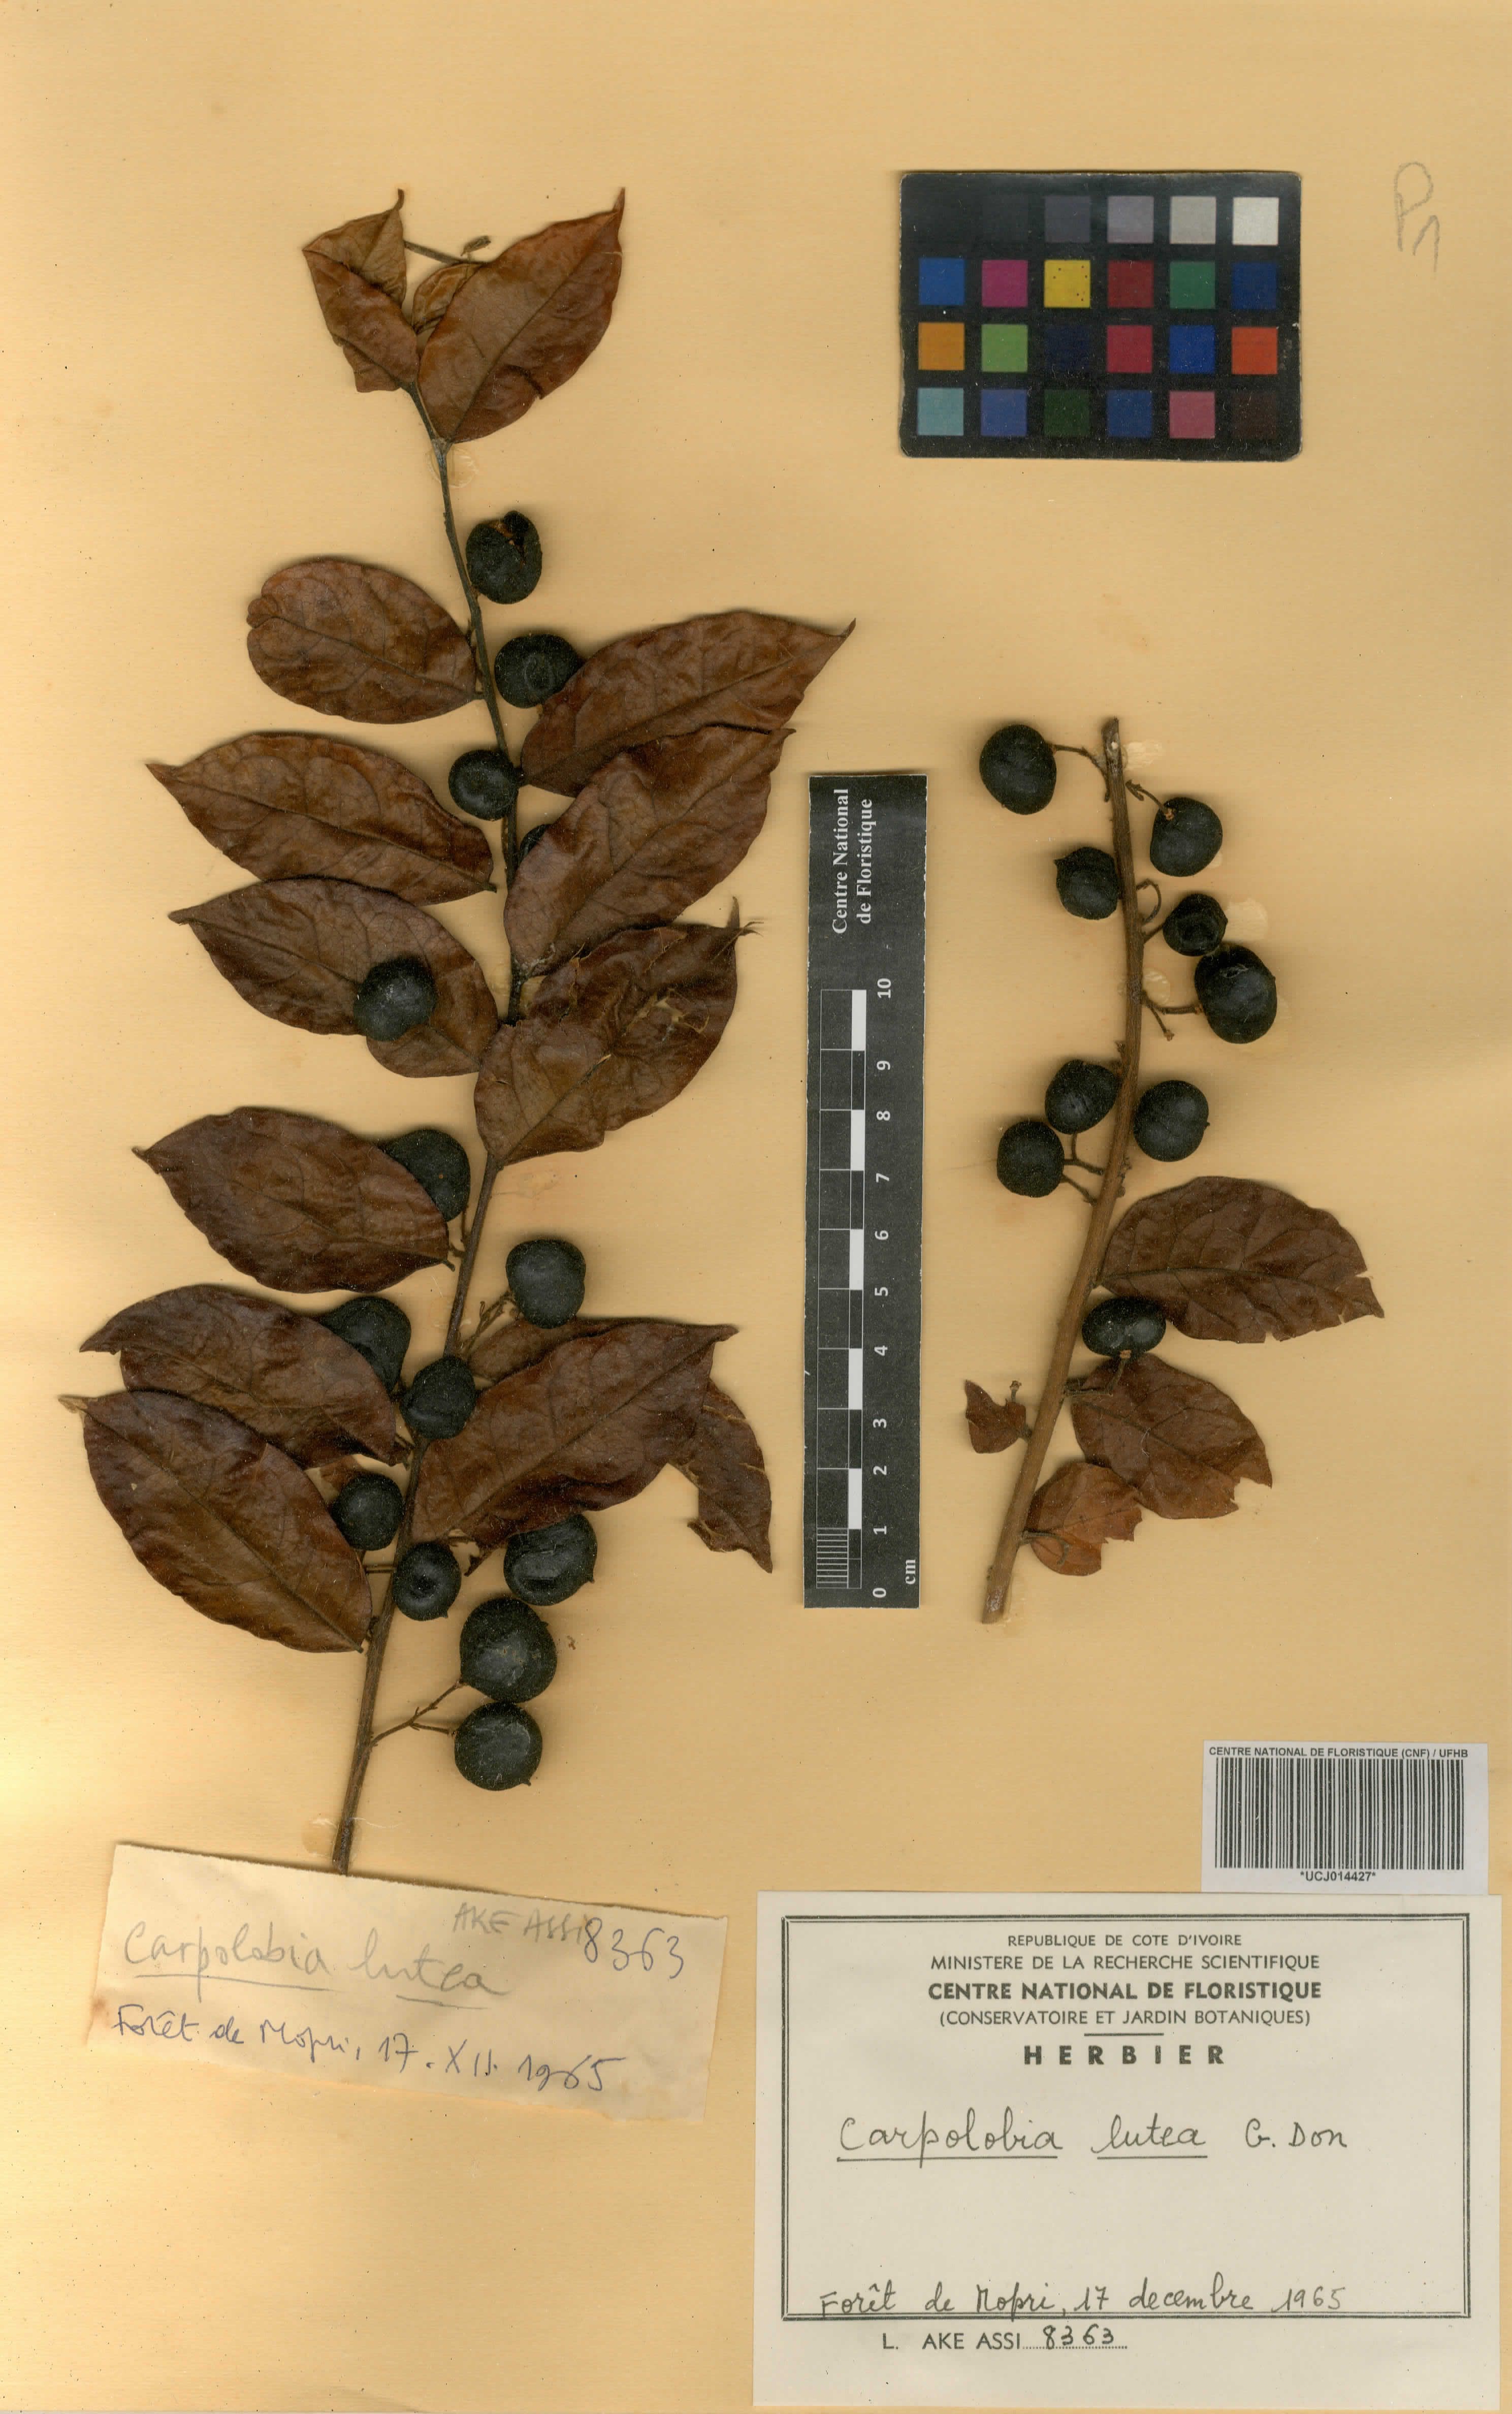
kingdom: Plantae
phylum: Tracheophyta
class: Magnoliopsida
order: Fabales
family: Polygalaceae
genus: Carpolobia
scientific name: Carpolobia lutea
